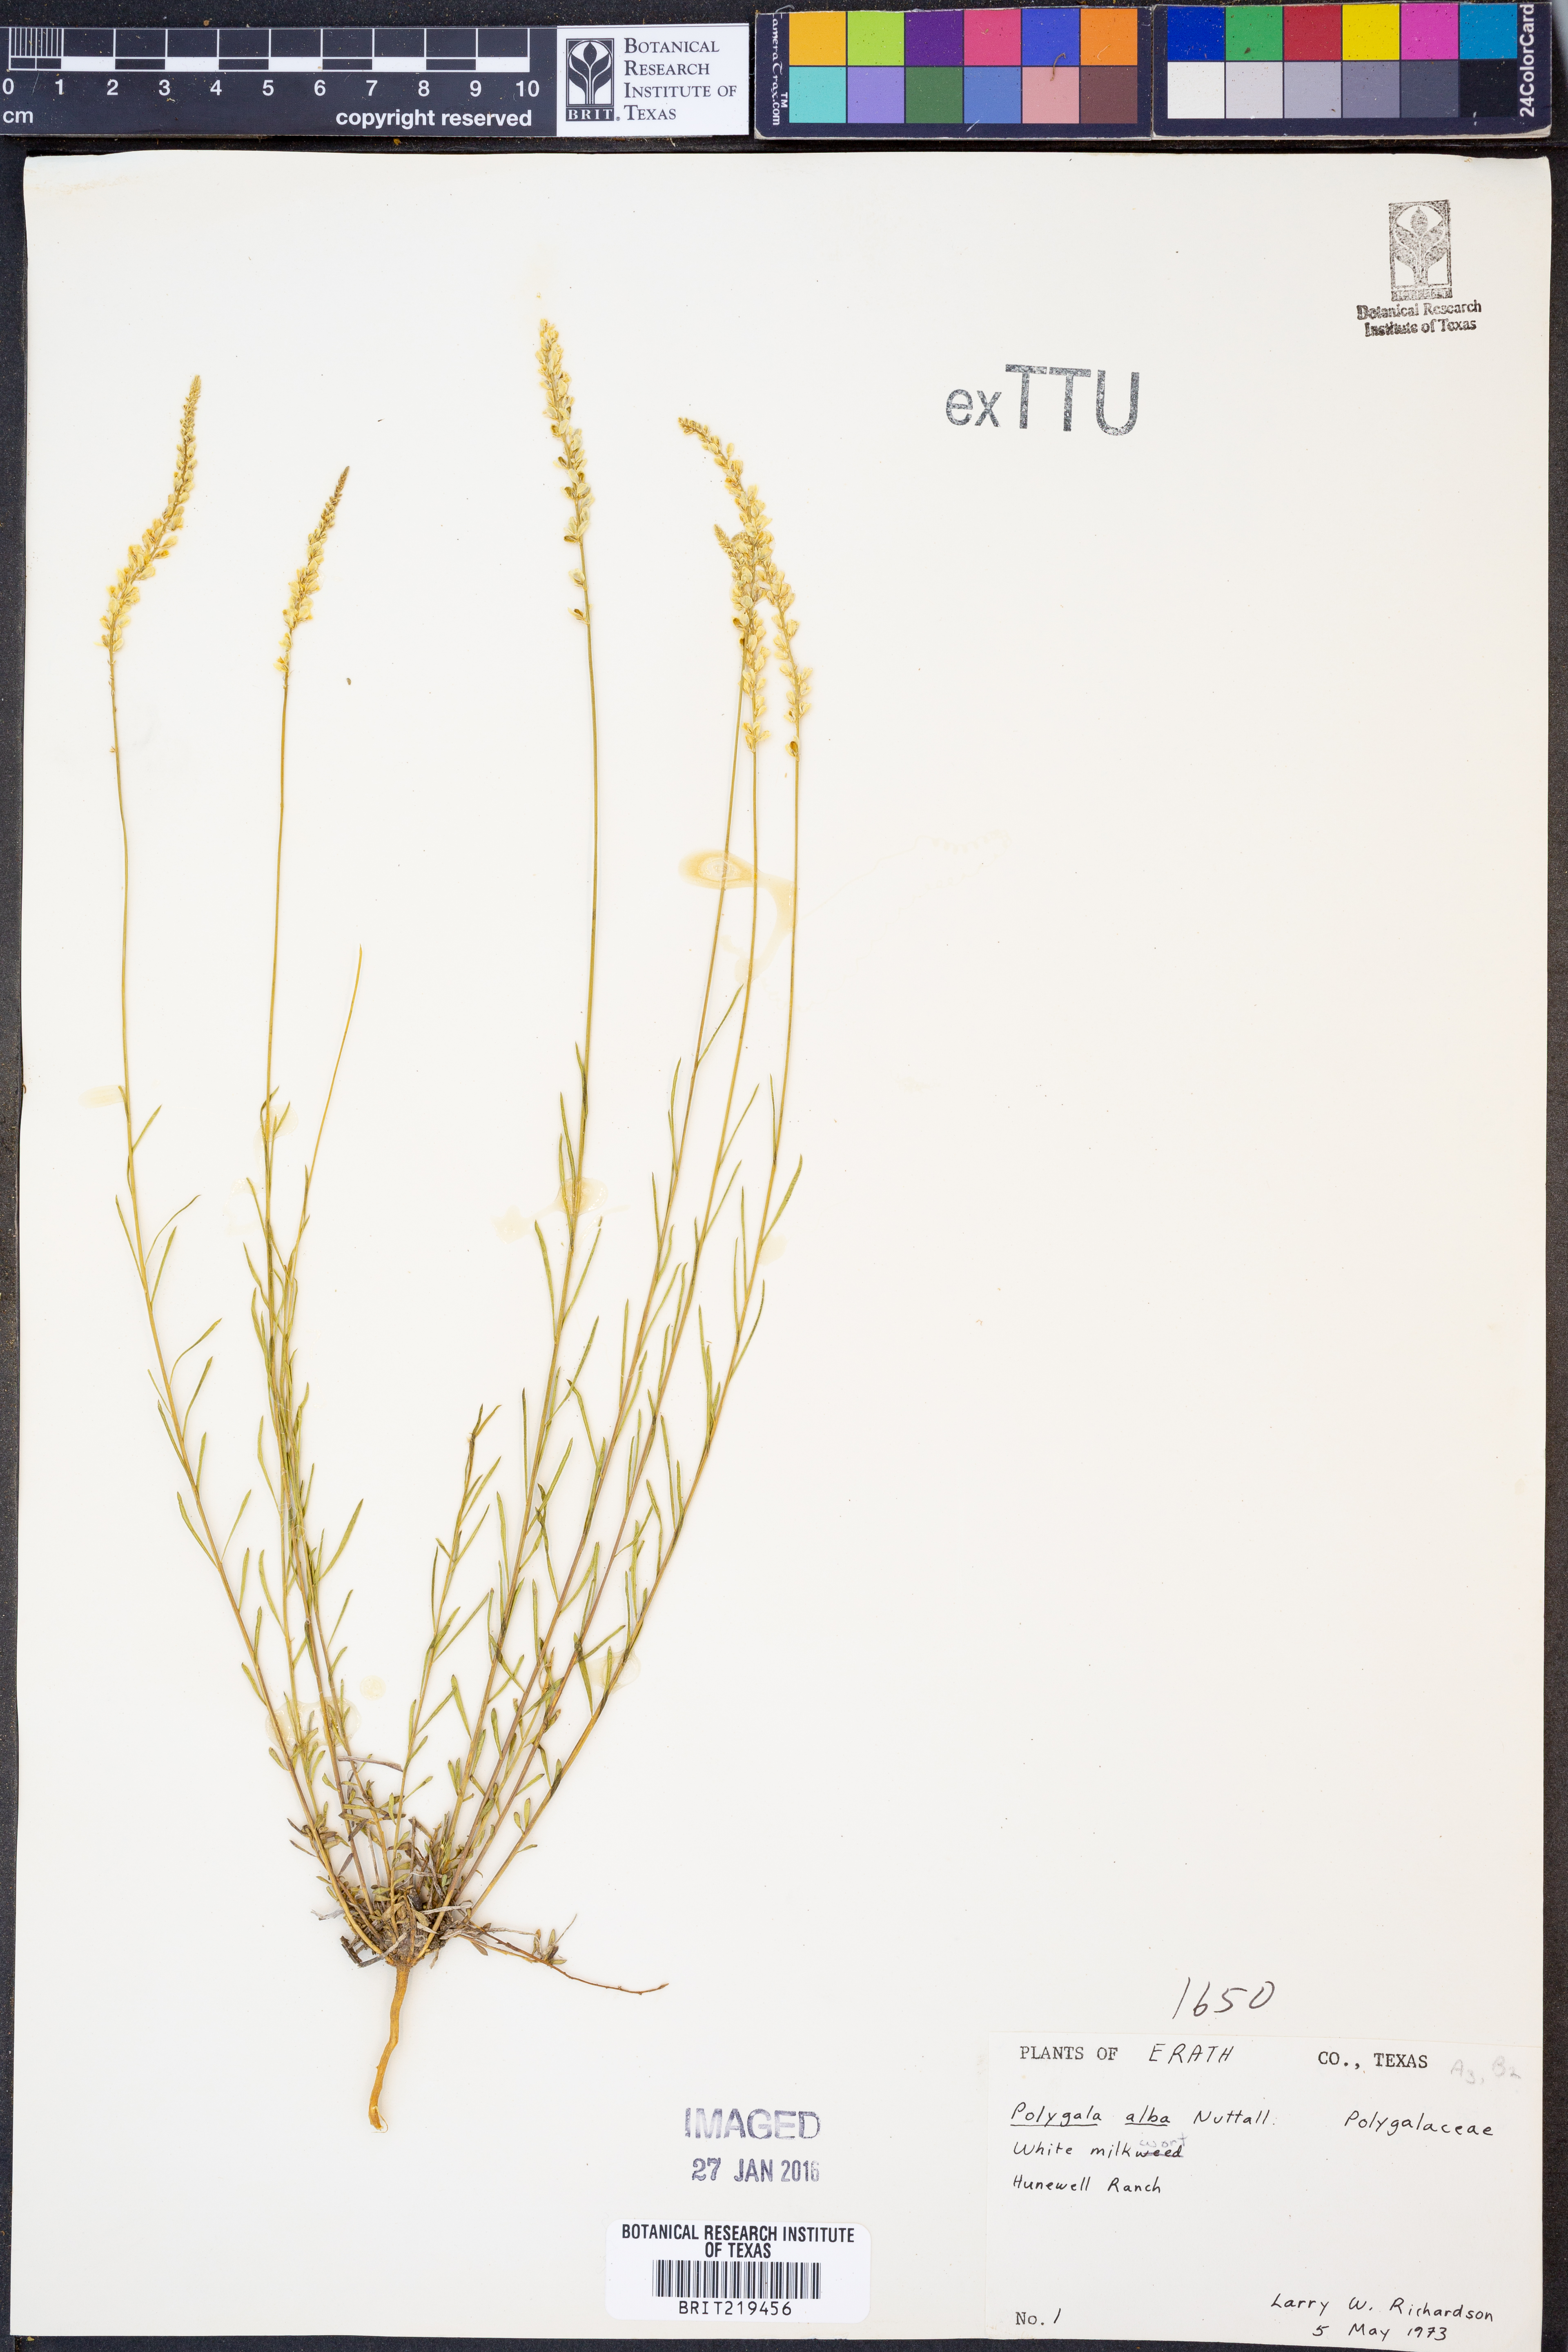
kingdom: Plantae
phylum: Tracheophyta
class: Magnoliopsida
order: Fabales
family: Polygalaceae
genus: Polygala
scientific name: Polygala alba
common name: White milkwort
